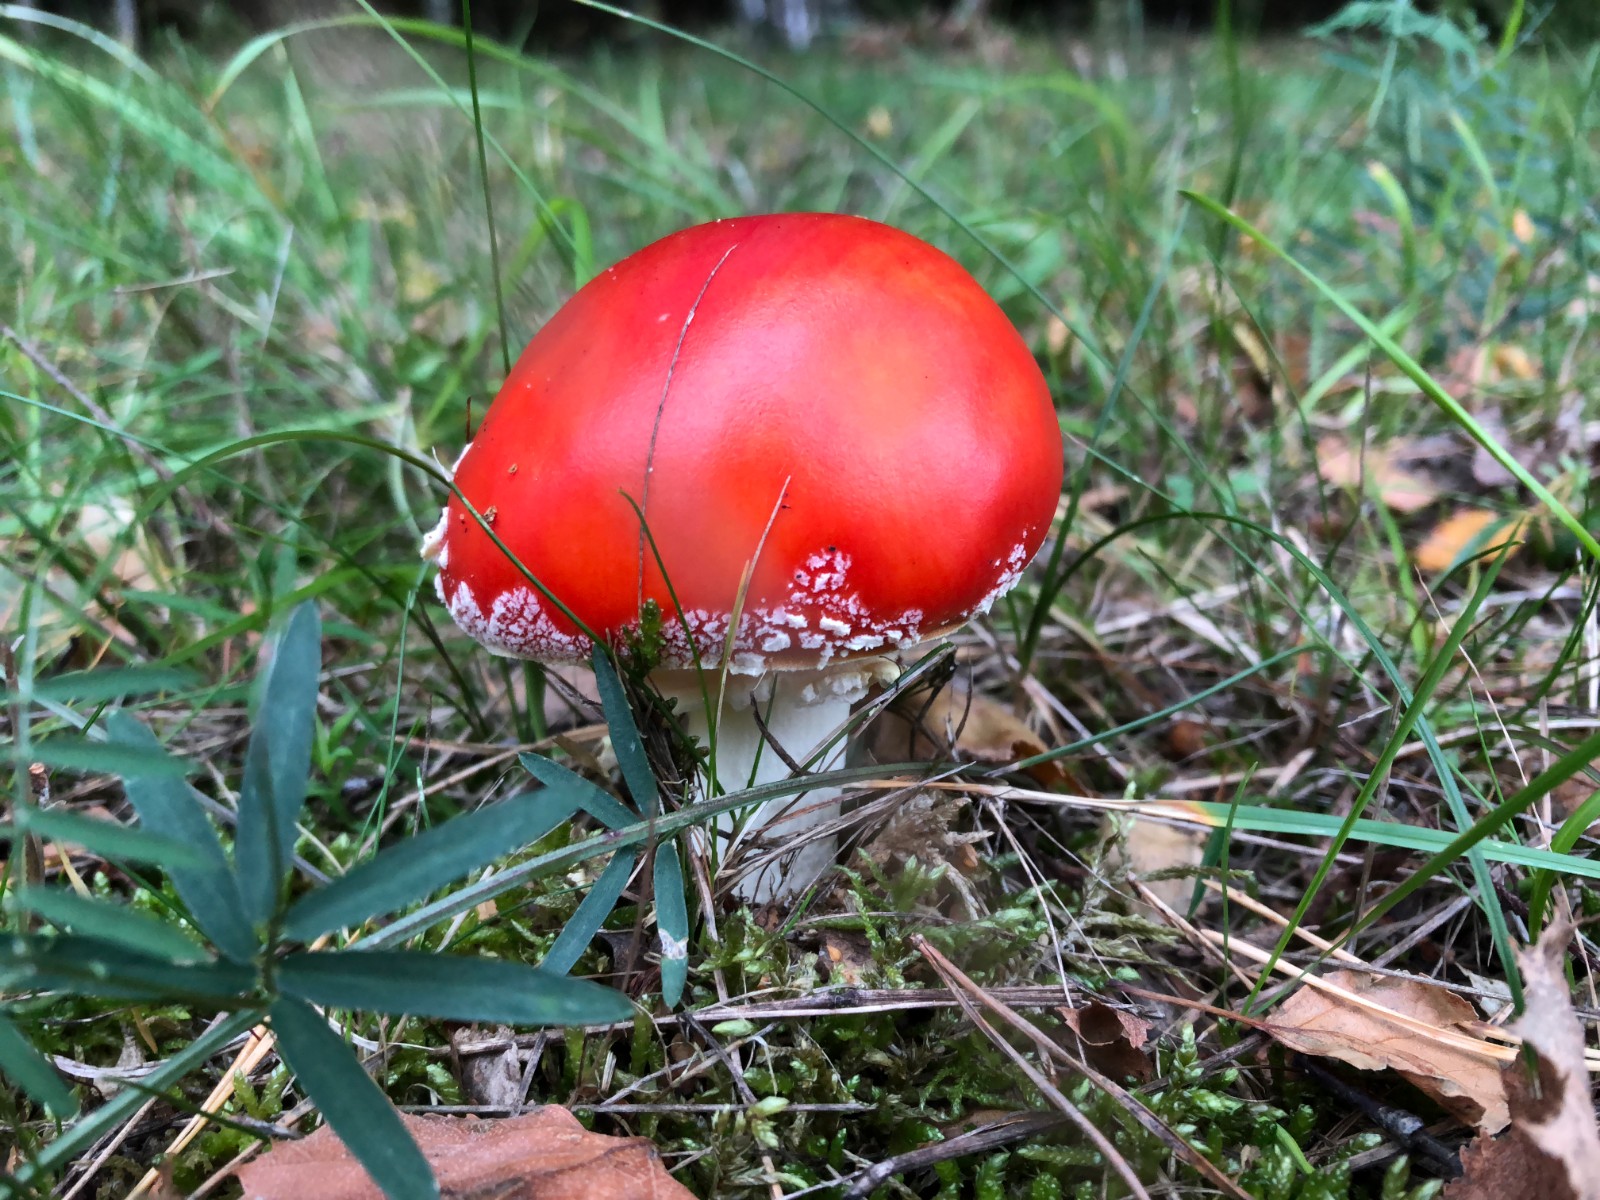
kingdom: Fungi
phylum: Basidiomycota
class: Agaricomycetes
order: Agaricales
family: Amanitaceae
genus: Amanita
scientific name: Amanita muscaria
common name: rød fluesvamp
